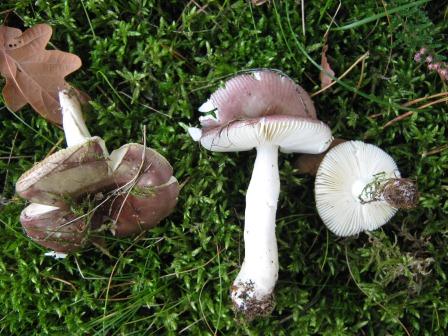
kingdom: Fungi
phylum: Basidiomycota
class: Agaricomycetes
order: Russulales
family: Russulaceae
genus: Russula
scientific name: Russula versicolor
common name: foranderlig skørhat
